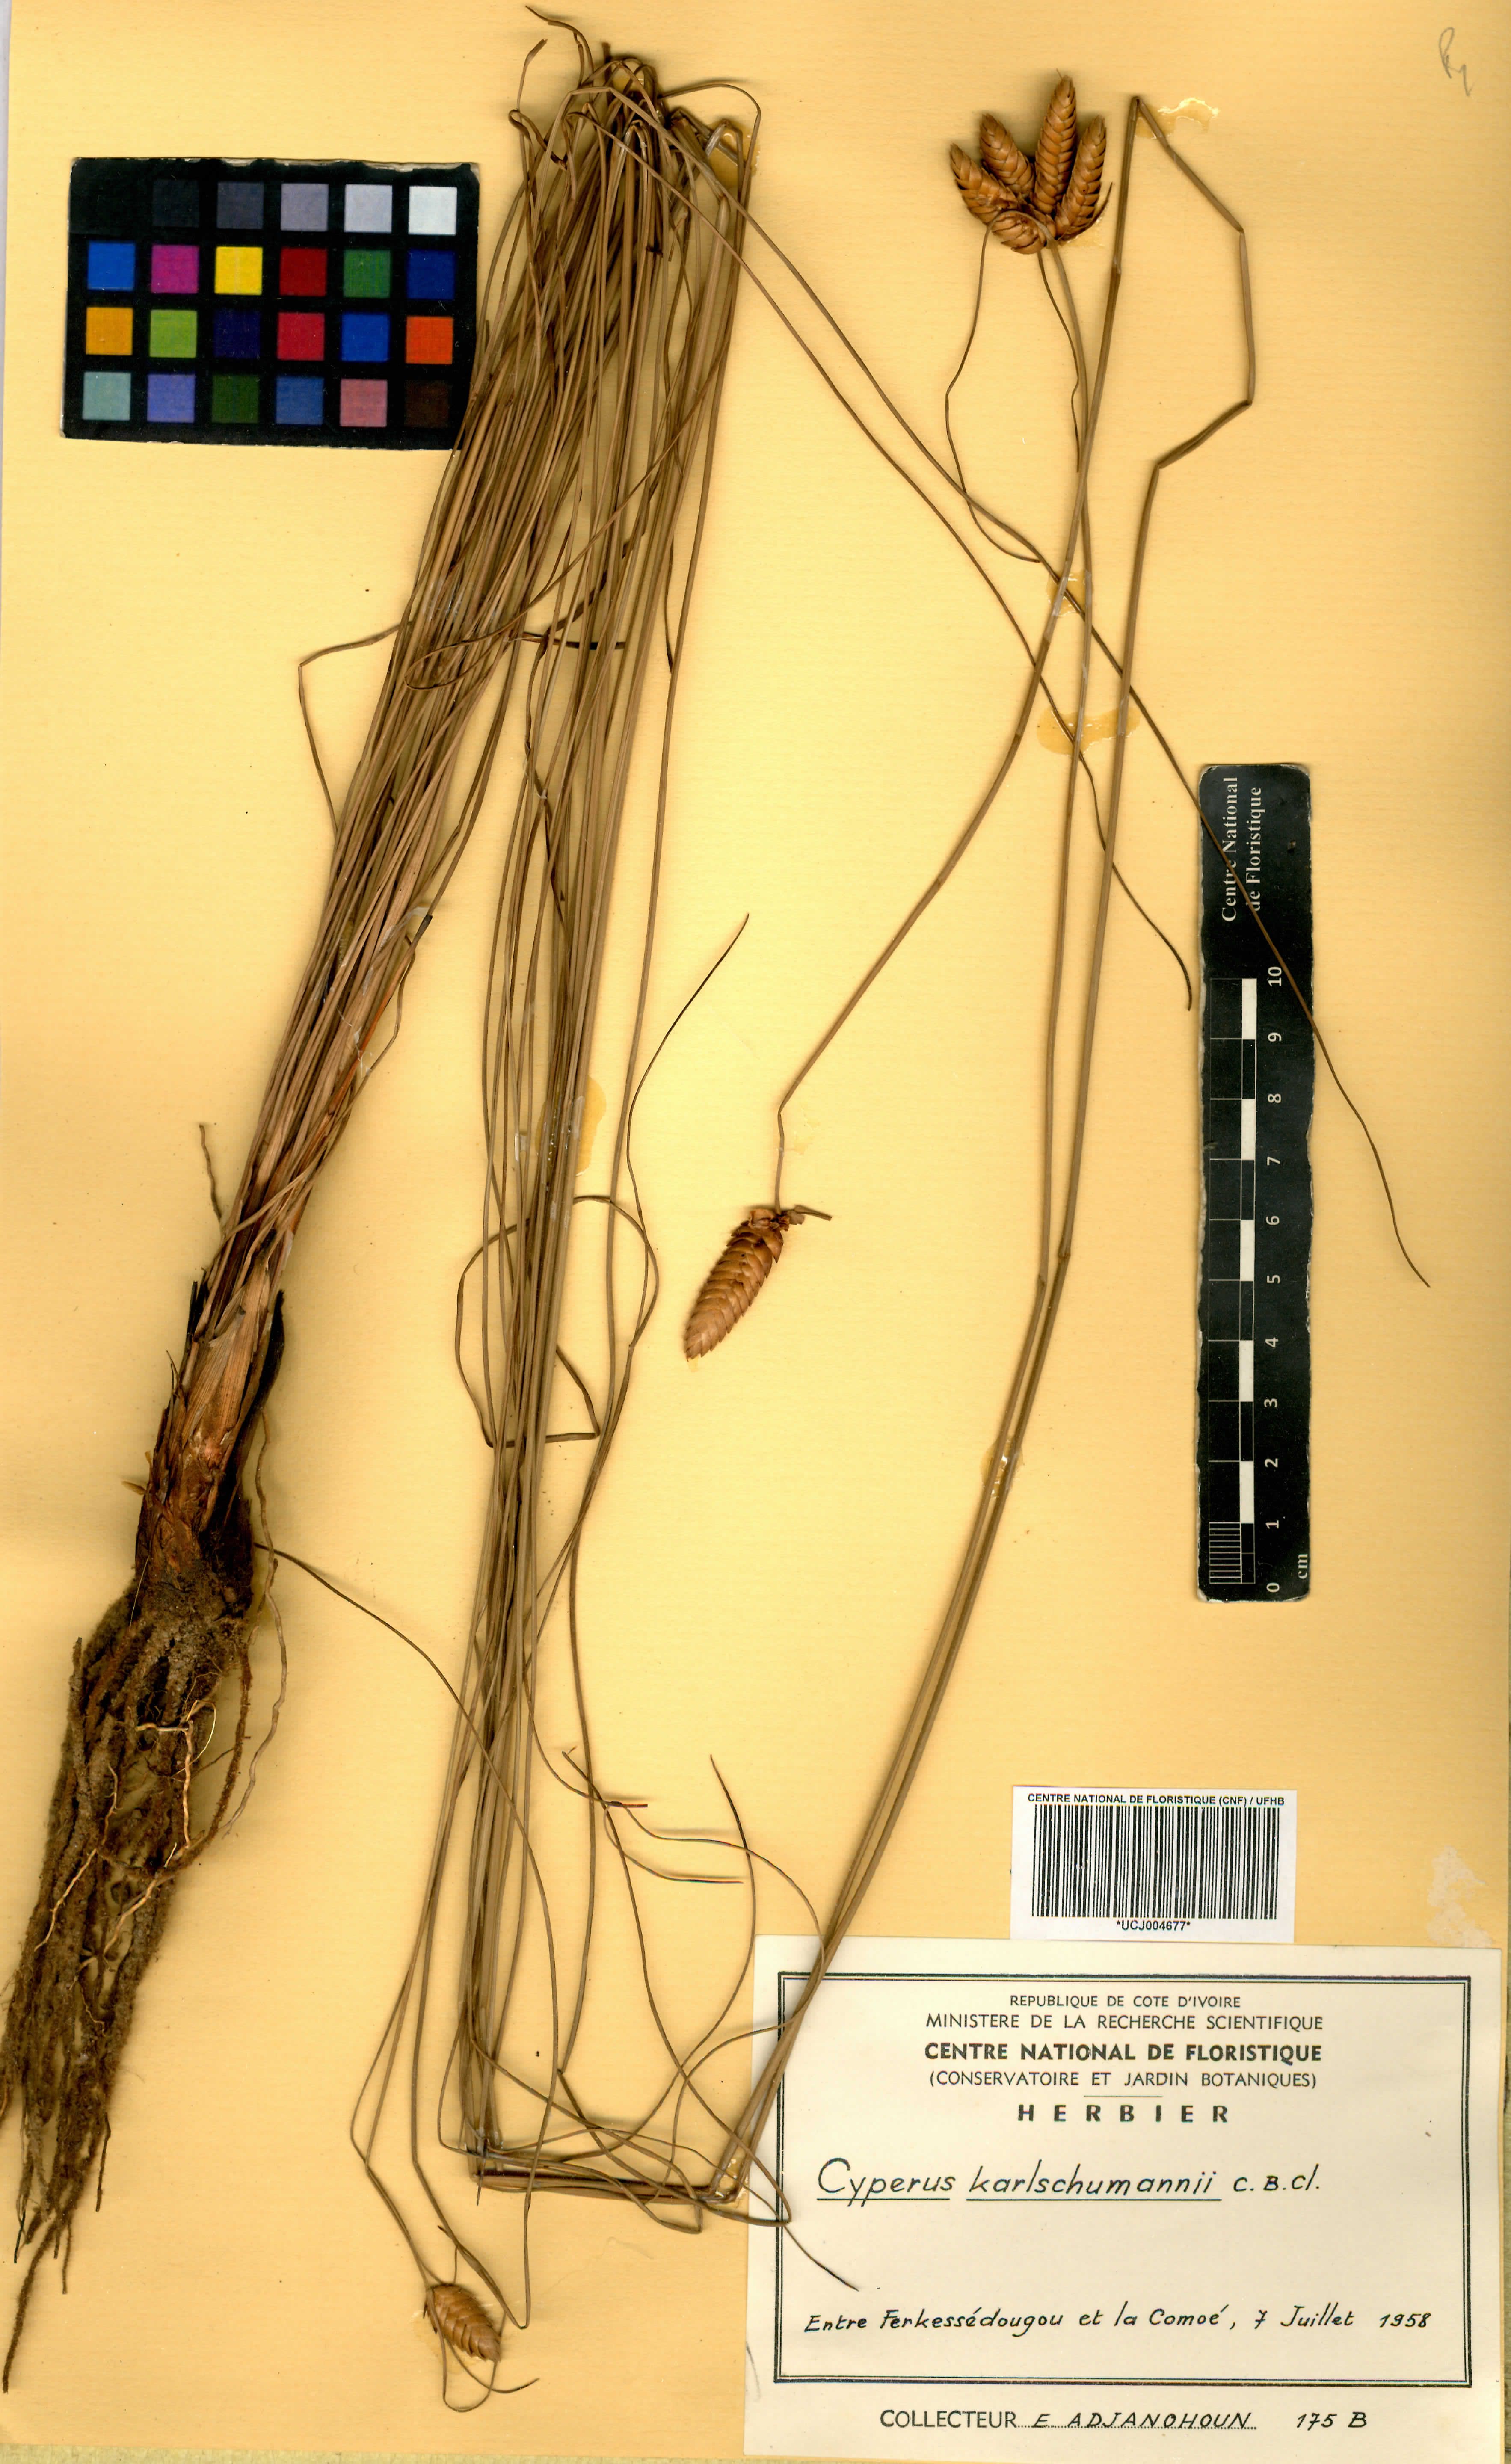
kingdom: Plantae
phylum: Tracheophyta
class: Liliopsida
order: Poales
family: Cyperaceae
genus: Cyperus
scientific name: Cyperus karlschumannii
